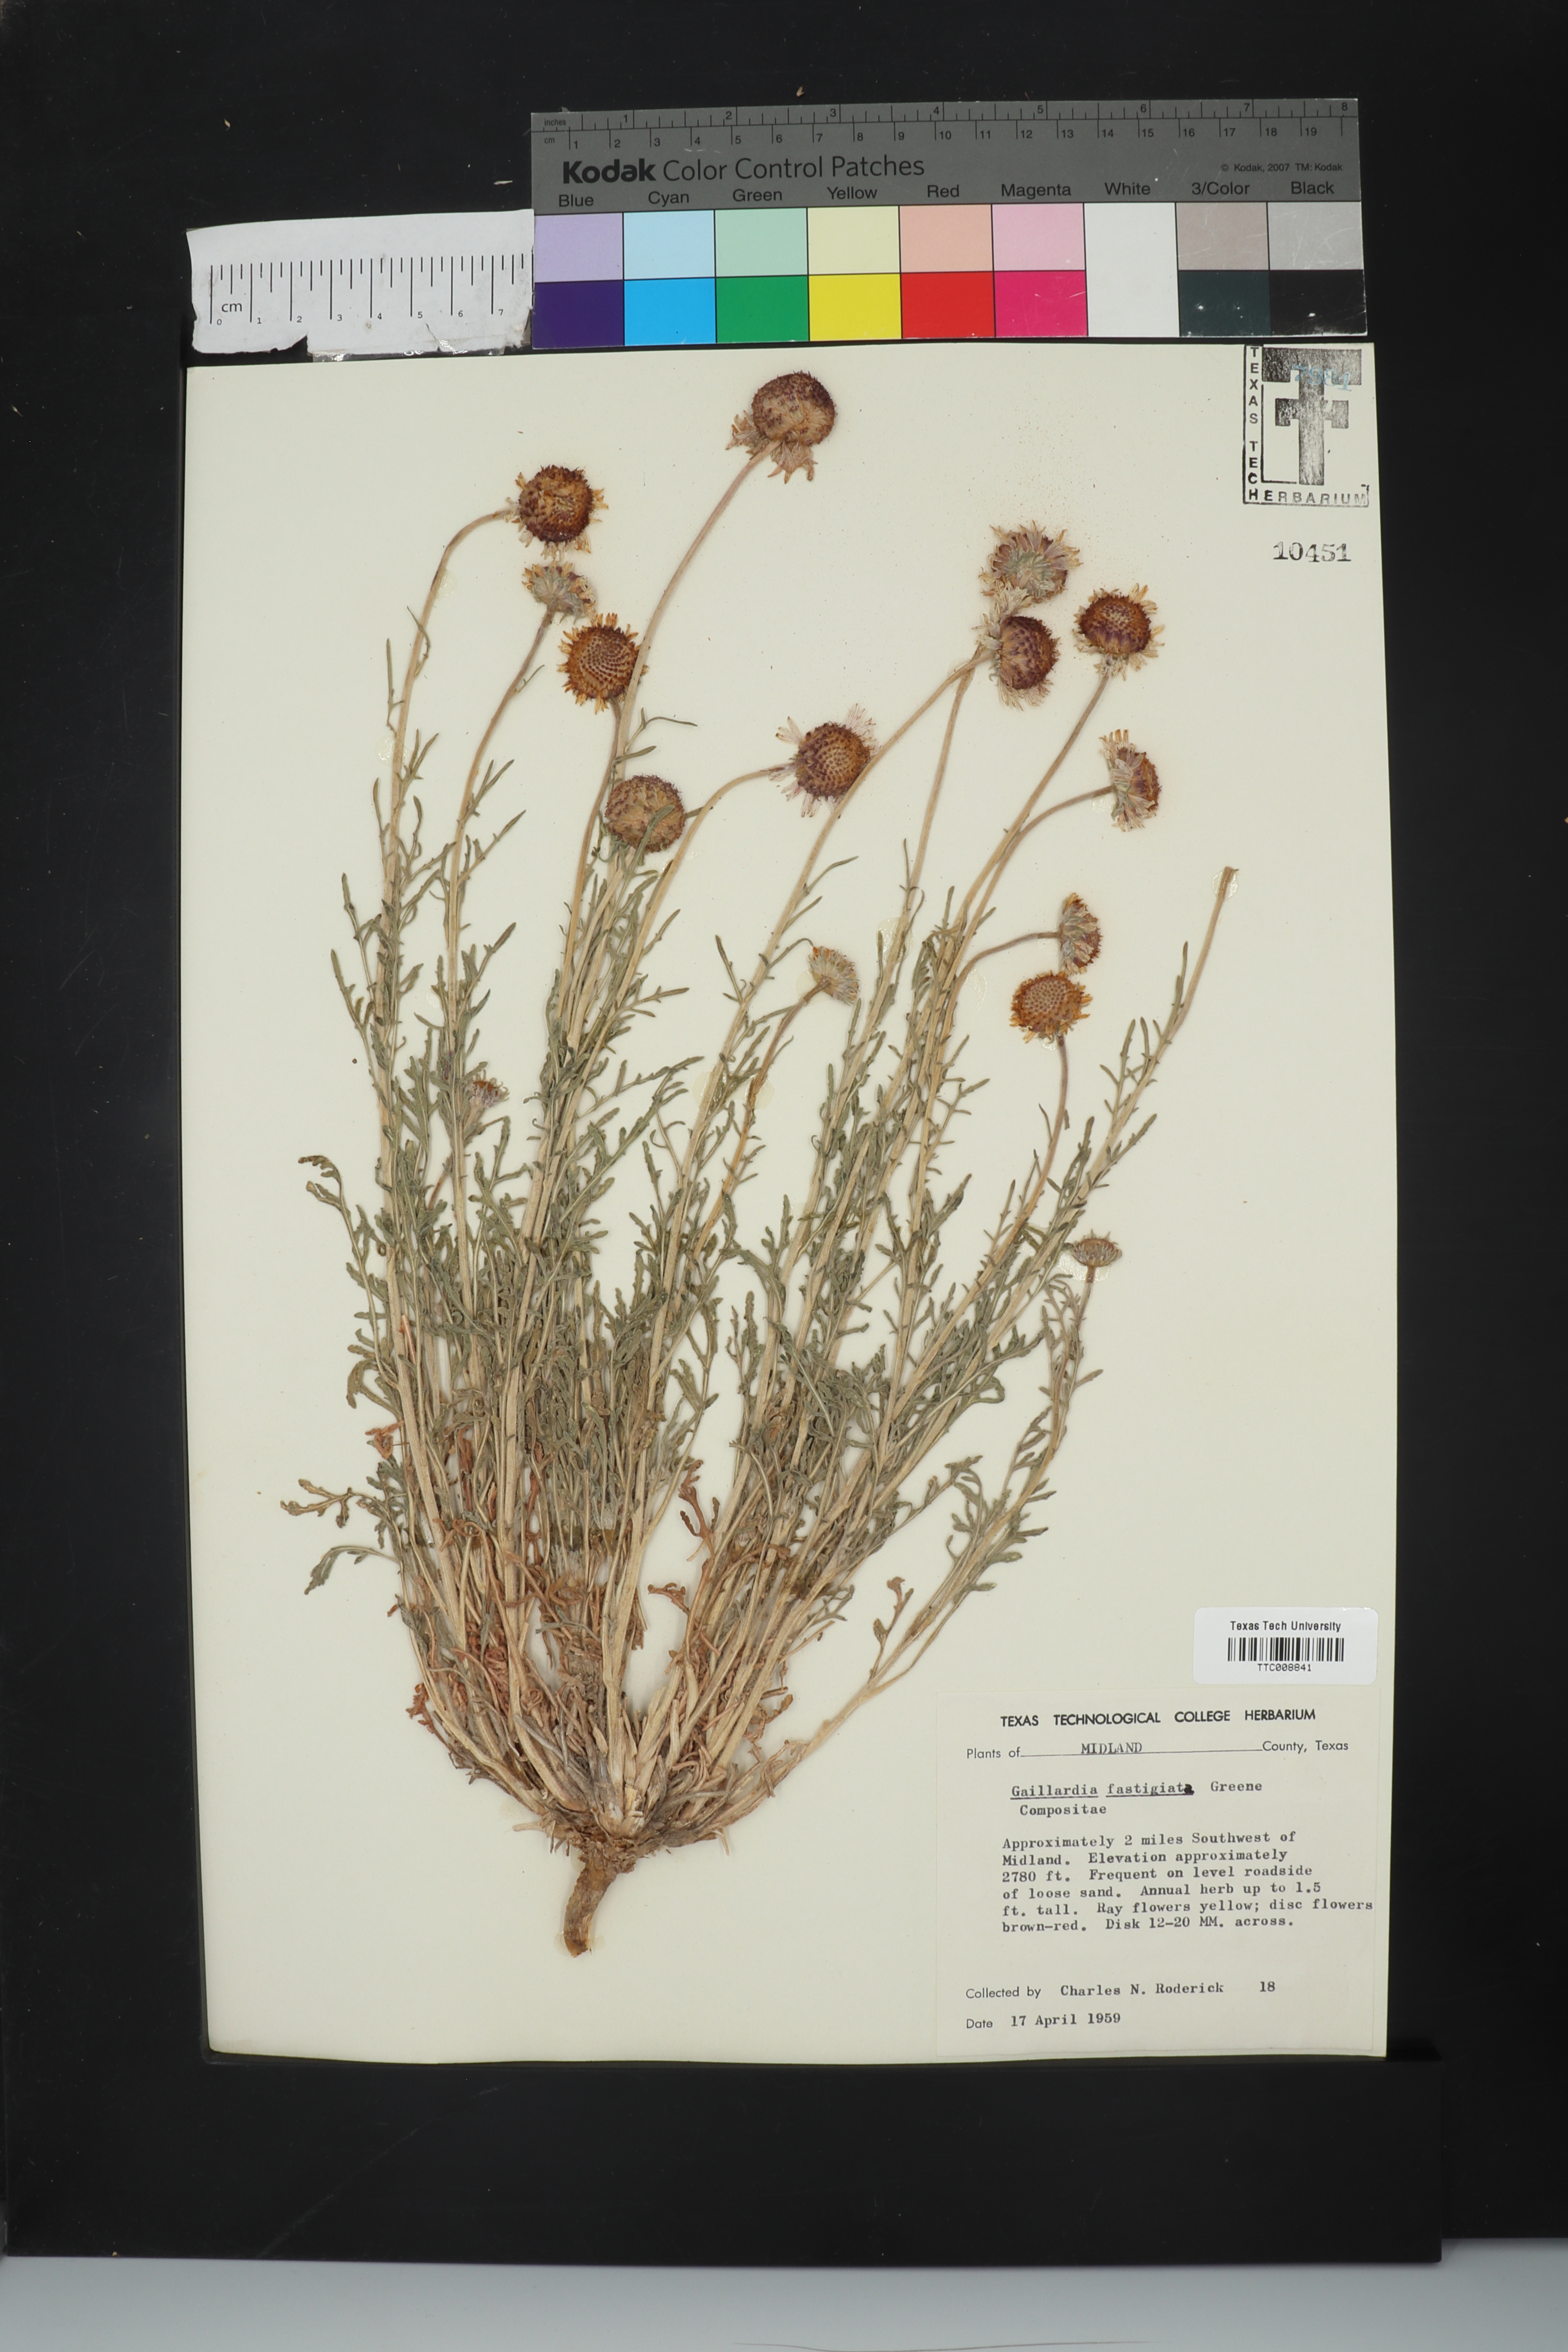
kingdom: Plantae
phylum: Tracheophyta
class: Magnoliopsida
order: Asterales
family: Asteraceae
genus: Gaillardia
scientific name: Gaillardia aestivalis
